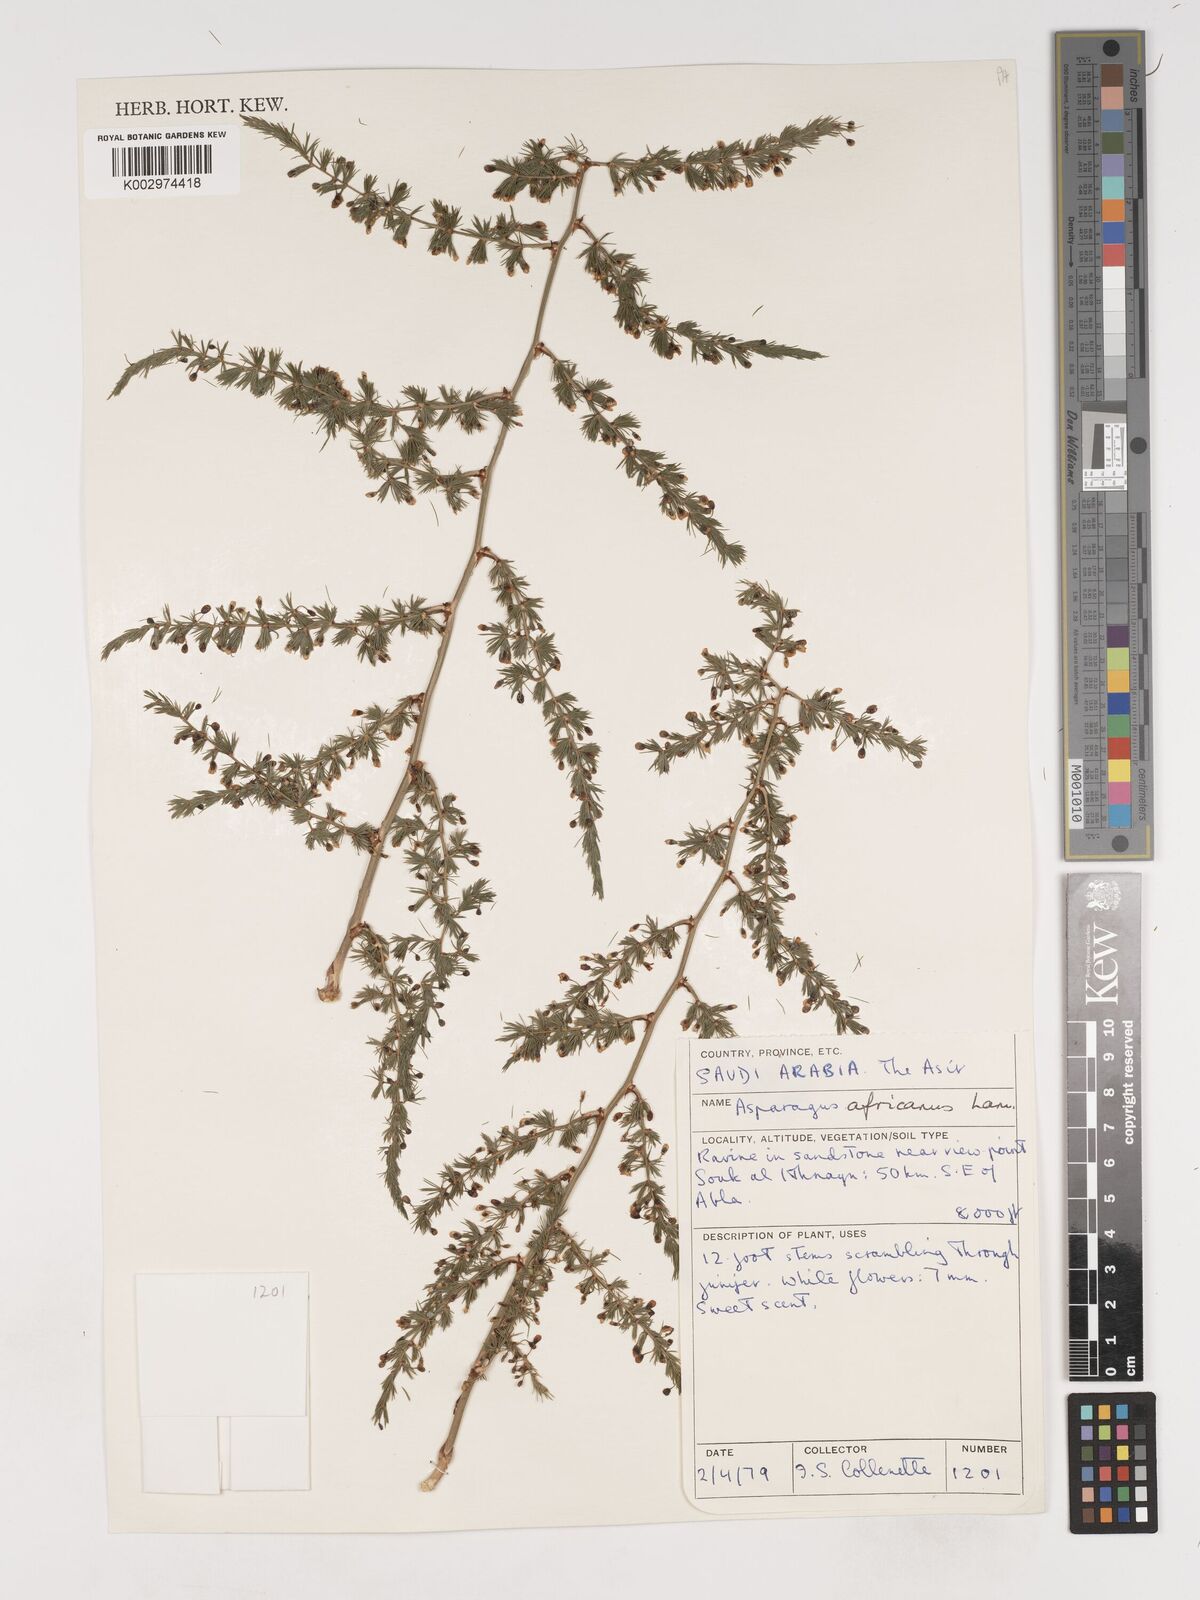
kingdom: Plantae
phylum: Tracheophyta
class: Liliopsida
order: Asparagales
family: Asparagaceae
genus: Asparagus
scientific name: Asparagus africanus
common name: Asparagus-fern
